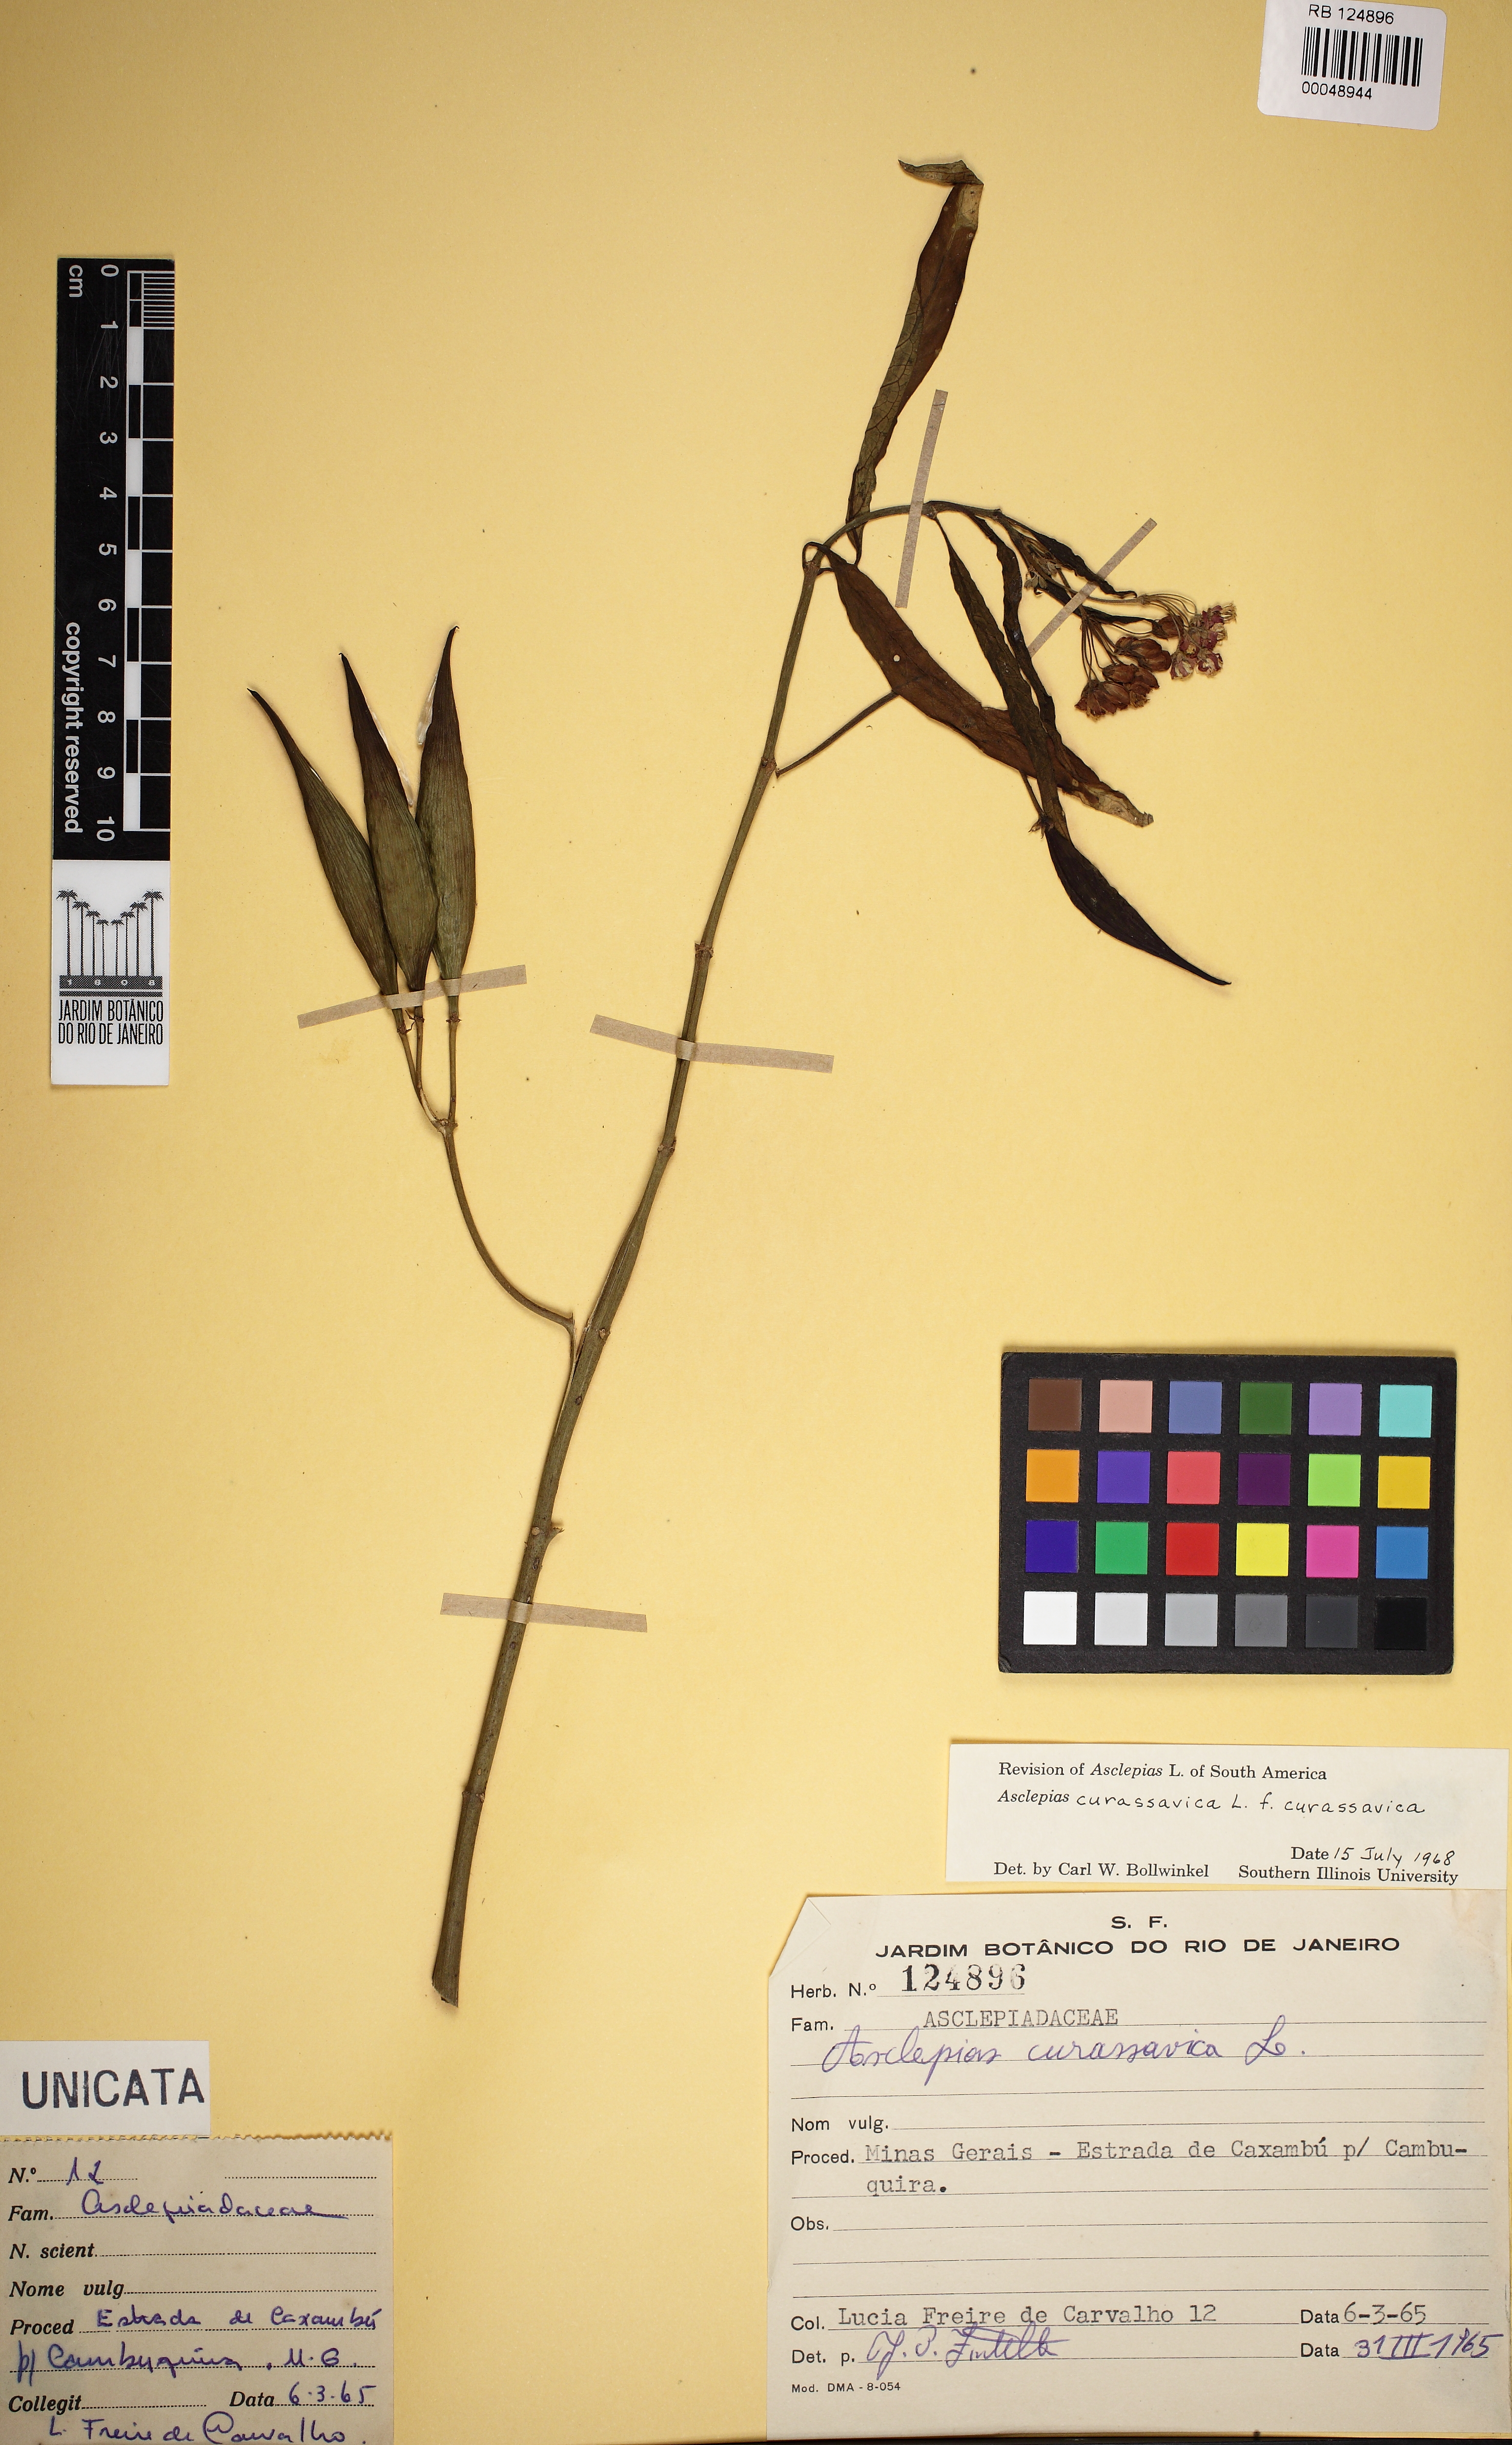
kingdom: Plantae
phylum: Tracheophyta
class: Magnoliopsida
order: Gentianales
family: Apocynaceae
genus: Asclepias
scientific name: Asclepias curassavica
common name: Bloodflower
